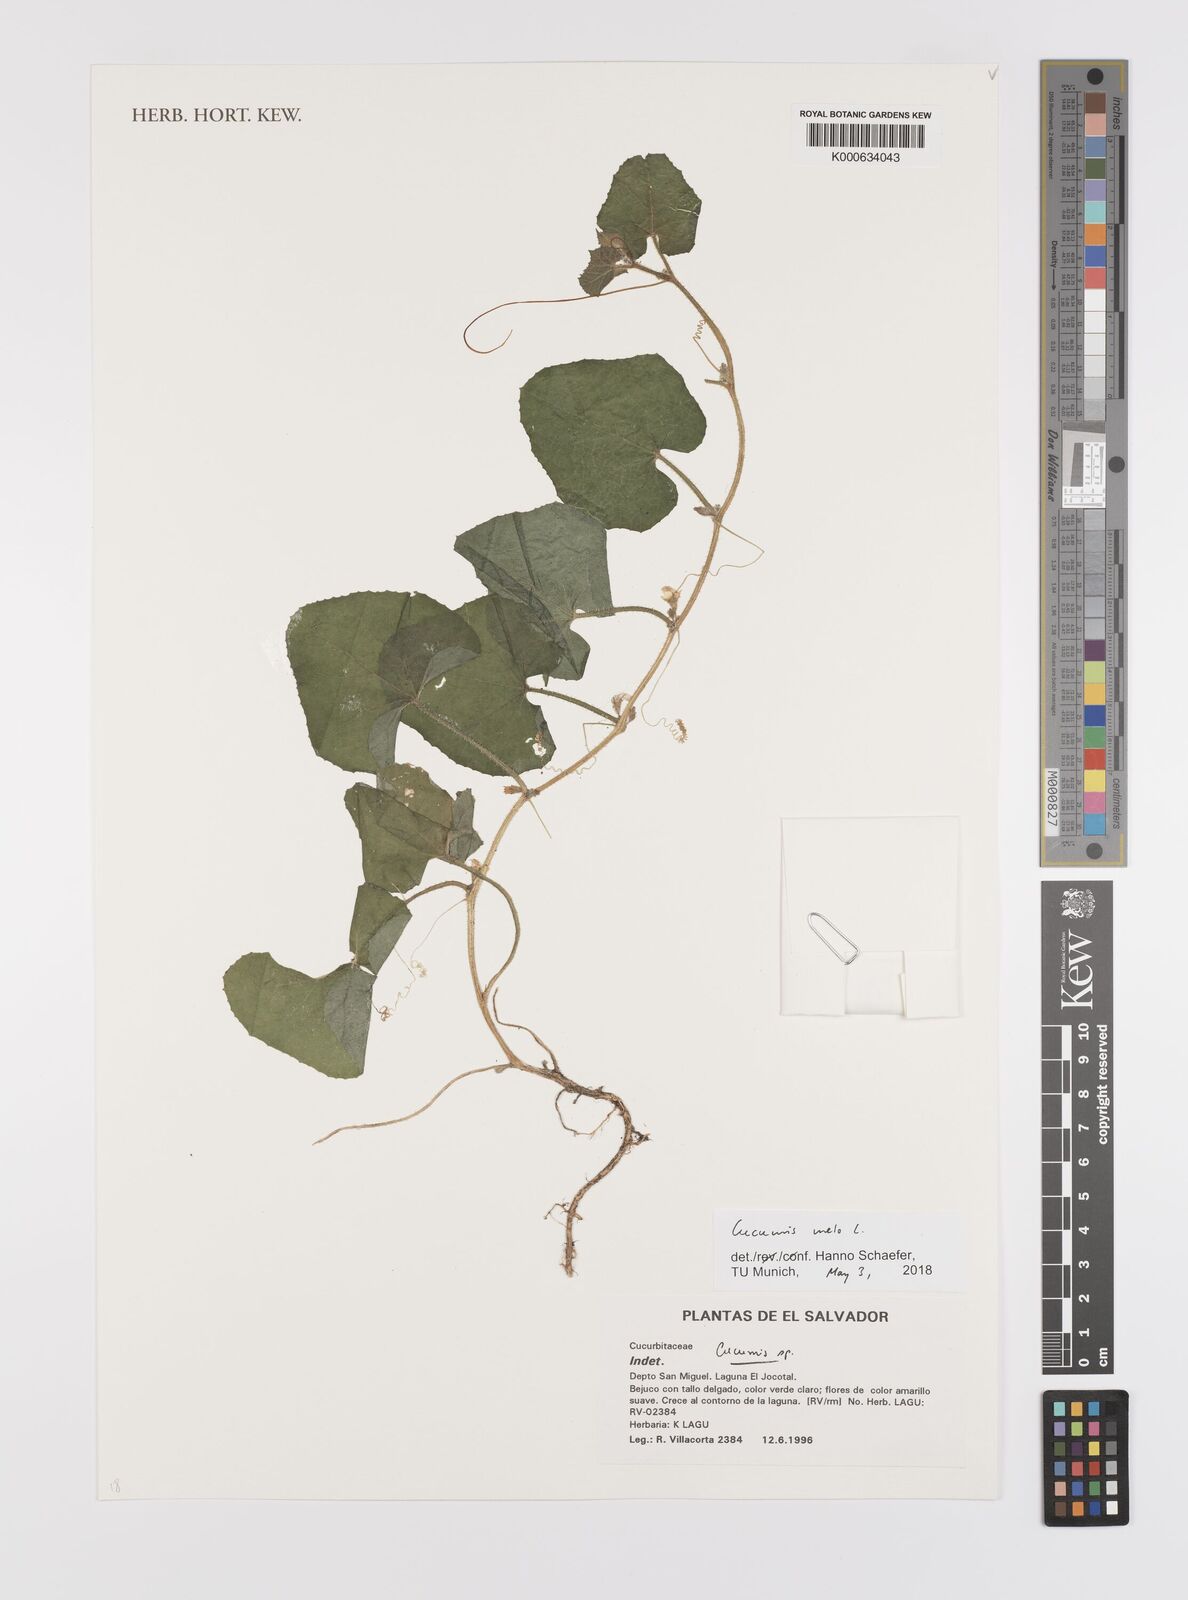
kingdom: Plantae
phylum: Tracheophyta
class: Magnoliopsida
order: Cucurbitales
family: Cucurbitaceae
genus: Cucumis
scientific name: Cucumis
